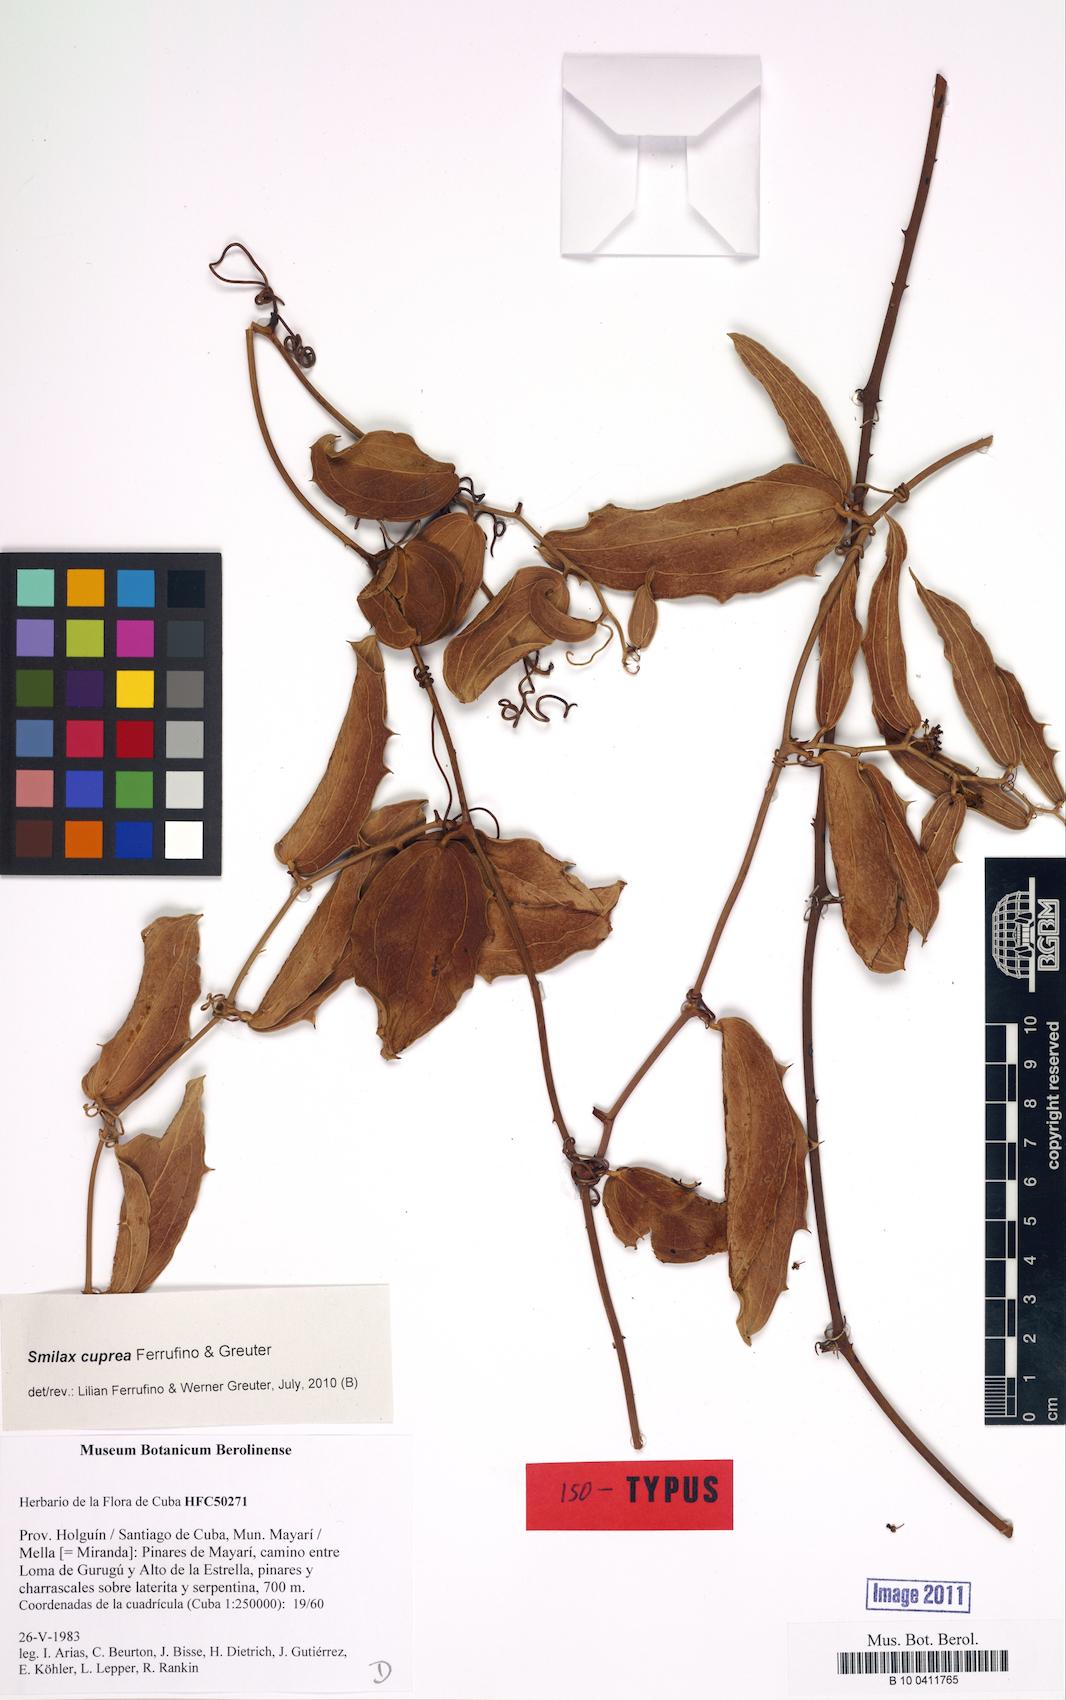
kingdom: Plantae
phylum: Tracheophyta
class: Liliopsida
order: Liliales
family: Smilacaceae
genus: Smilax
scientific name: Smilax cuprea
